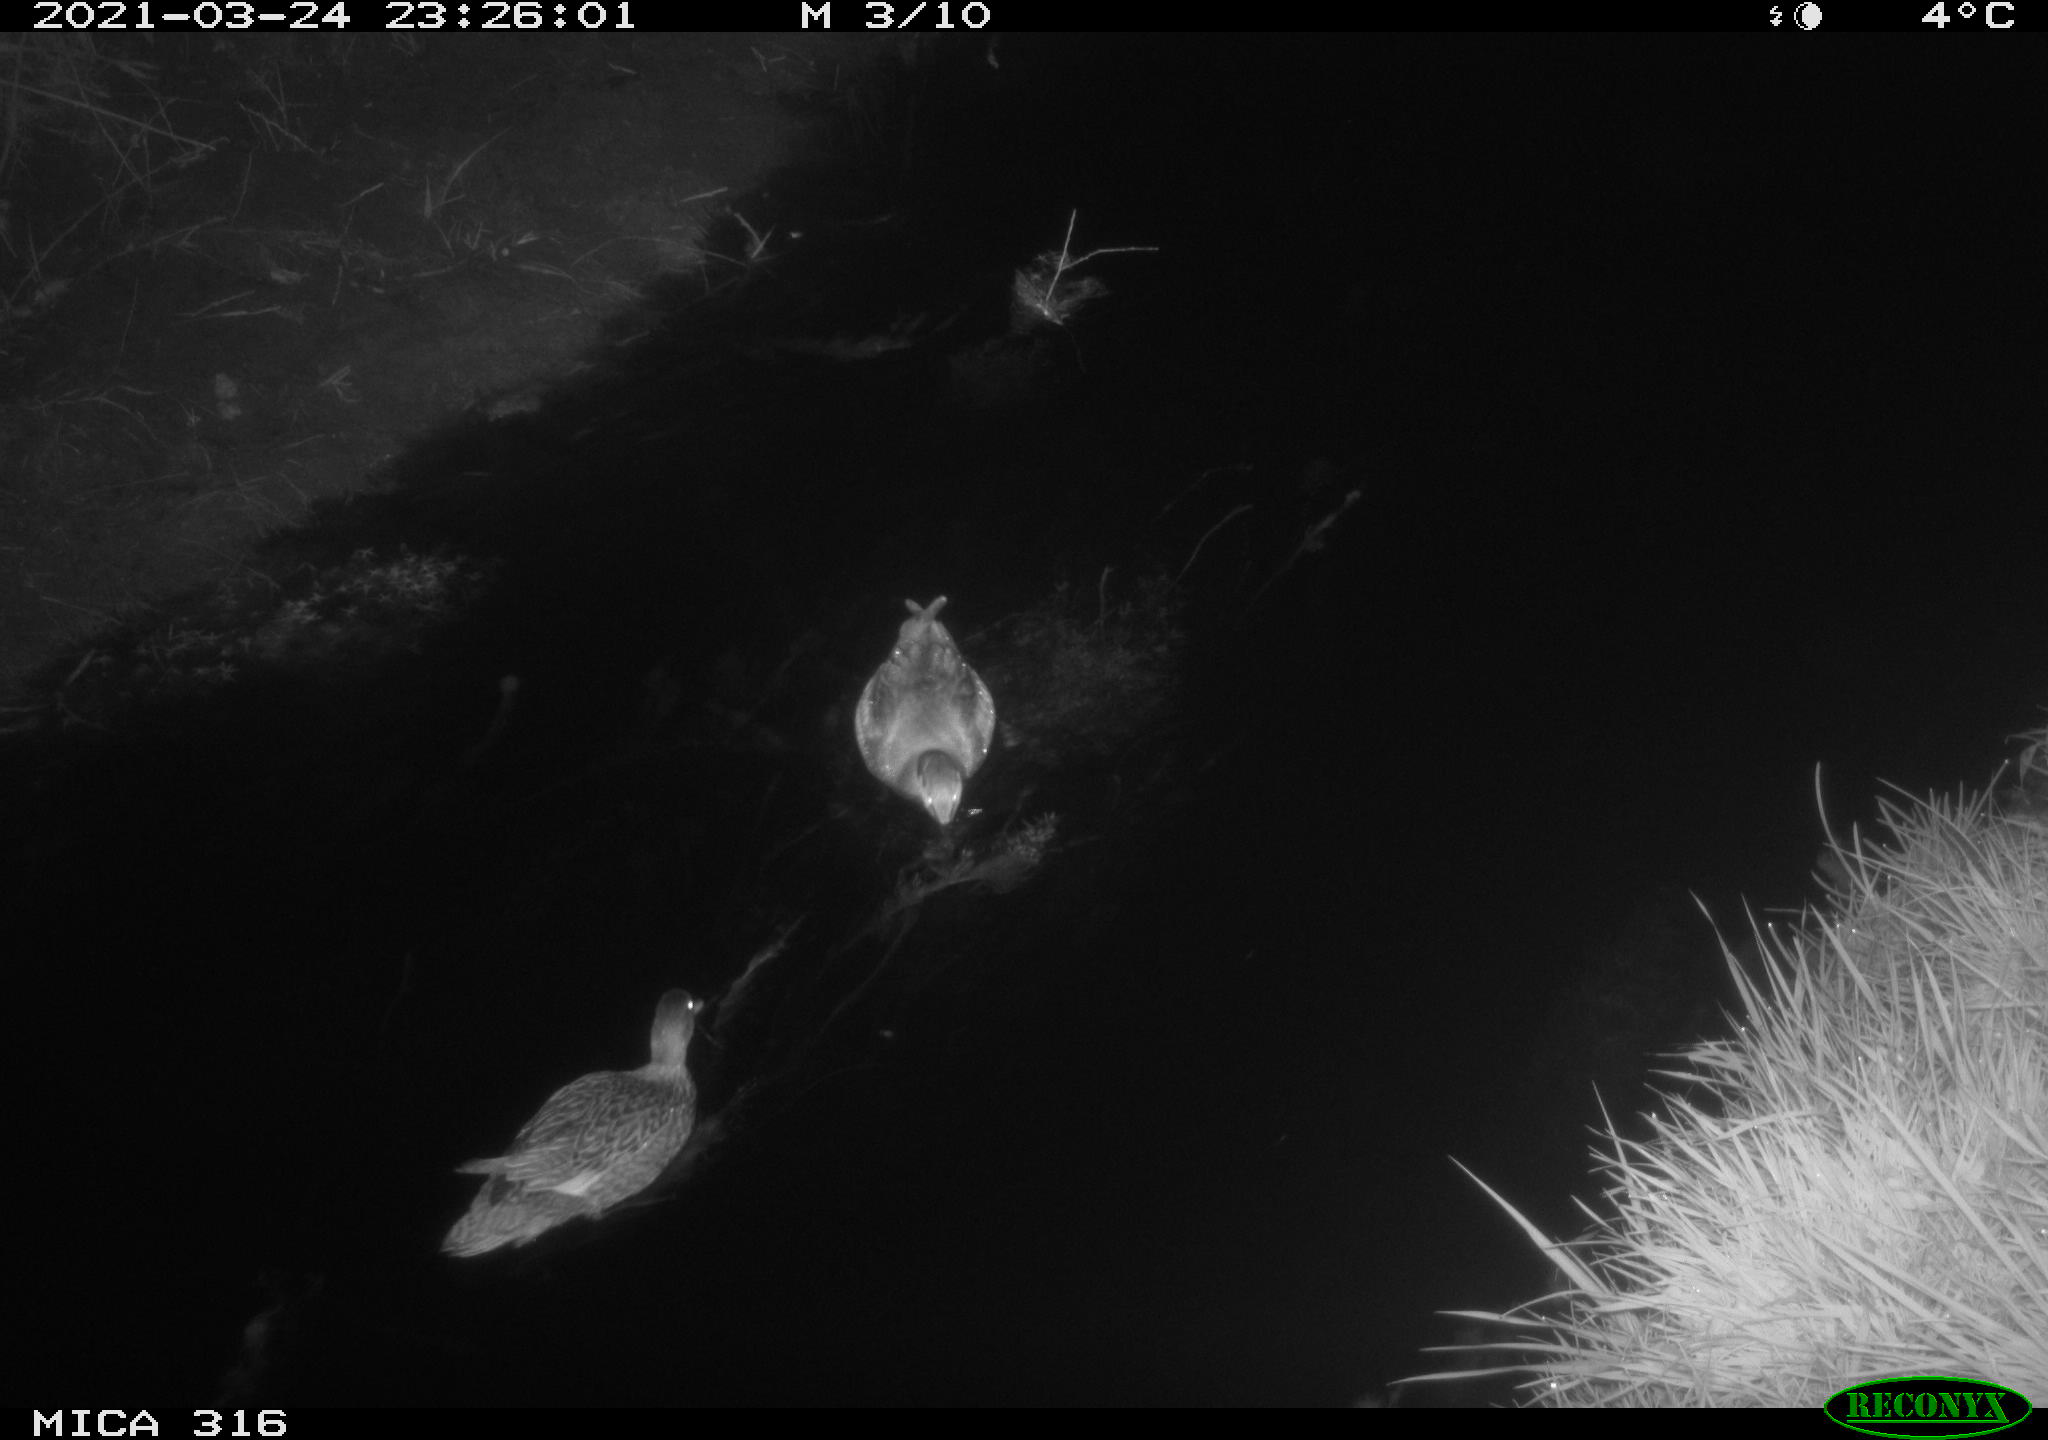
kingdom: Animalia
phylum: Chordata
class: Aves
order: Anseriformes
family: Anatidae
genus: Anas
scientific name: Anas platyrhynchos
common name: Mallard
